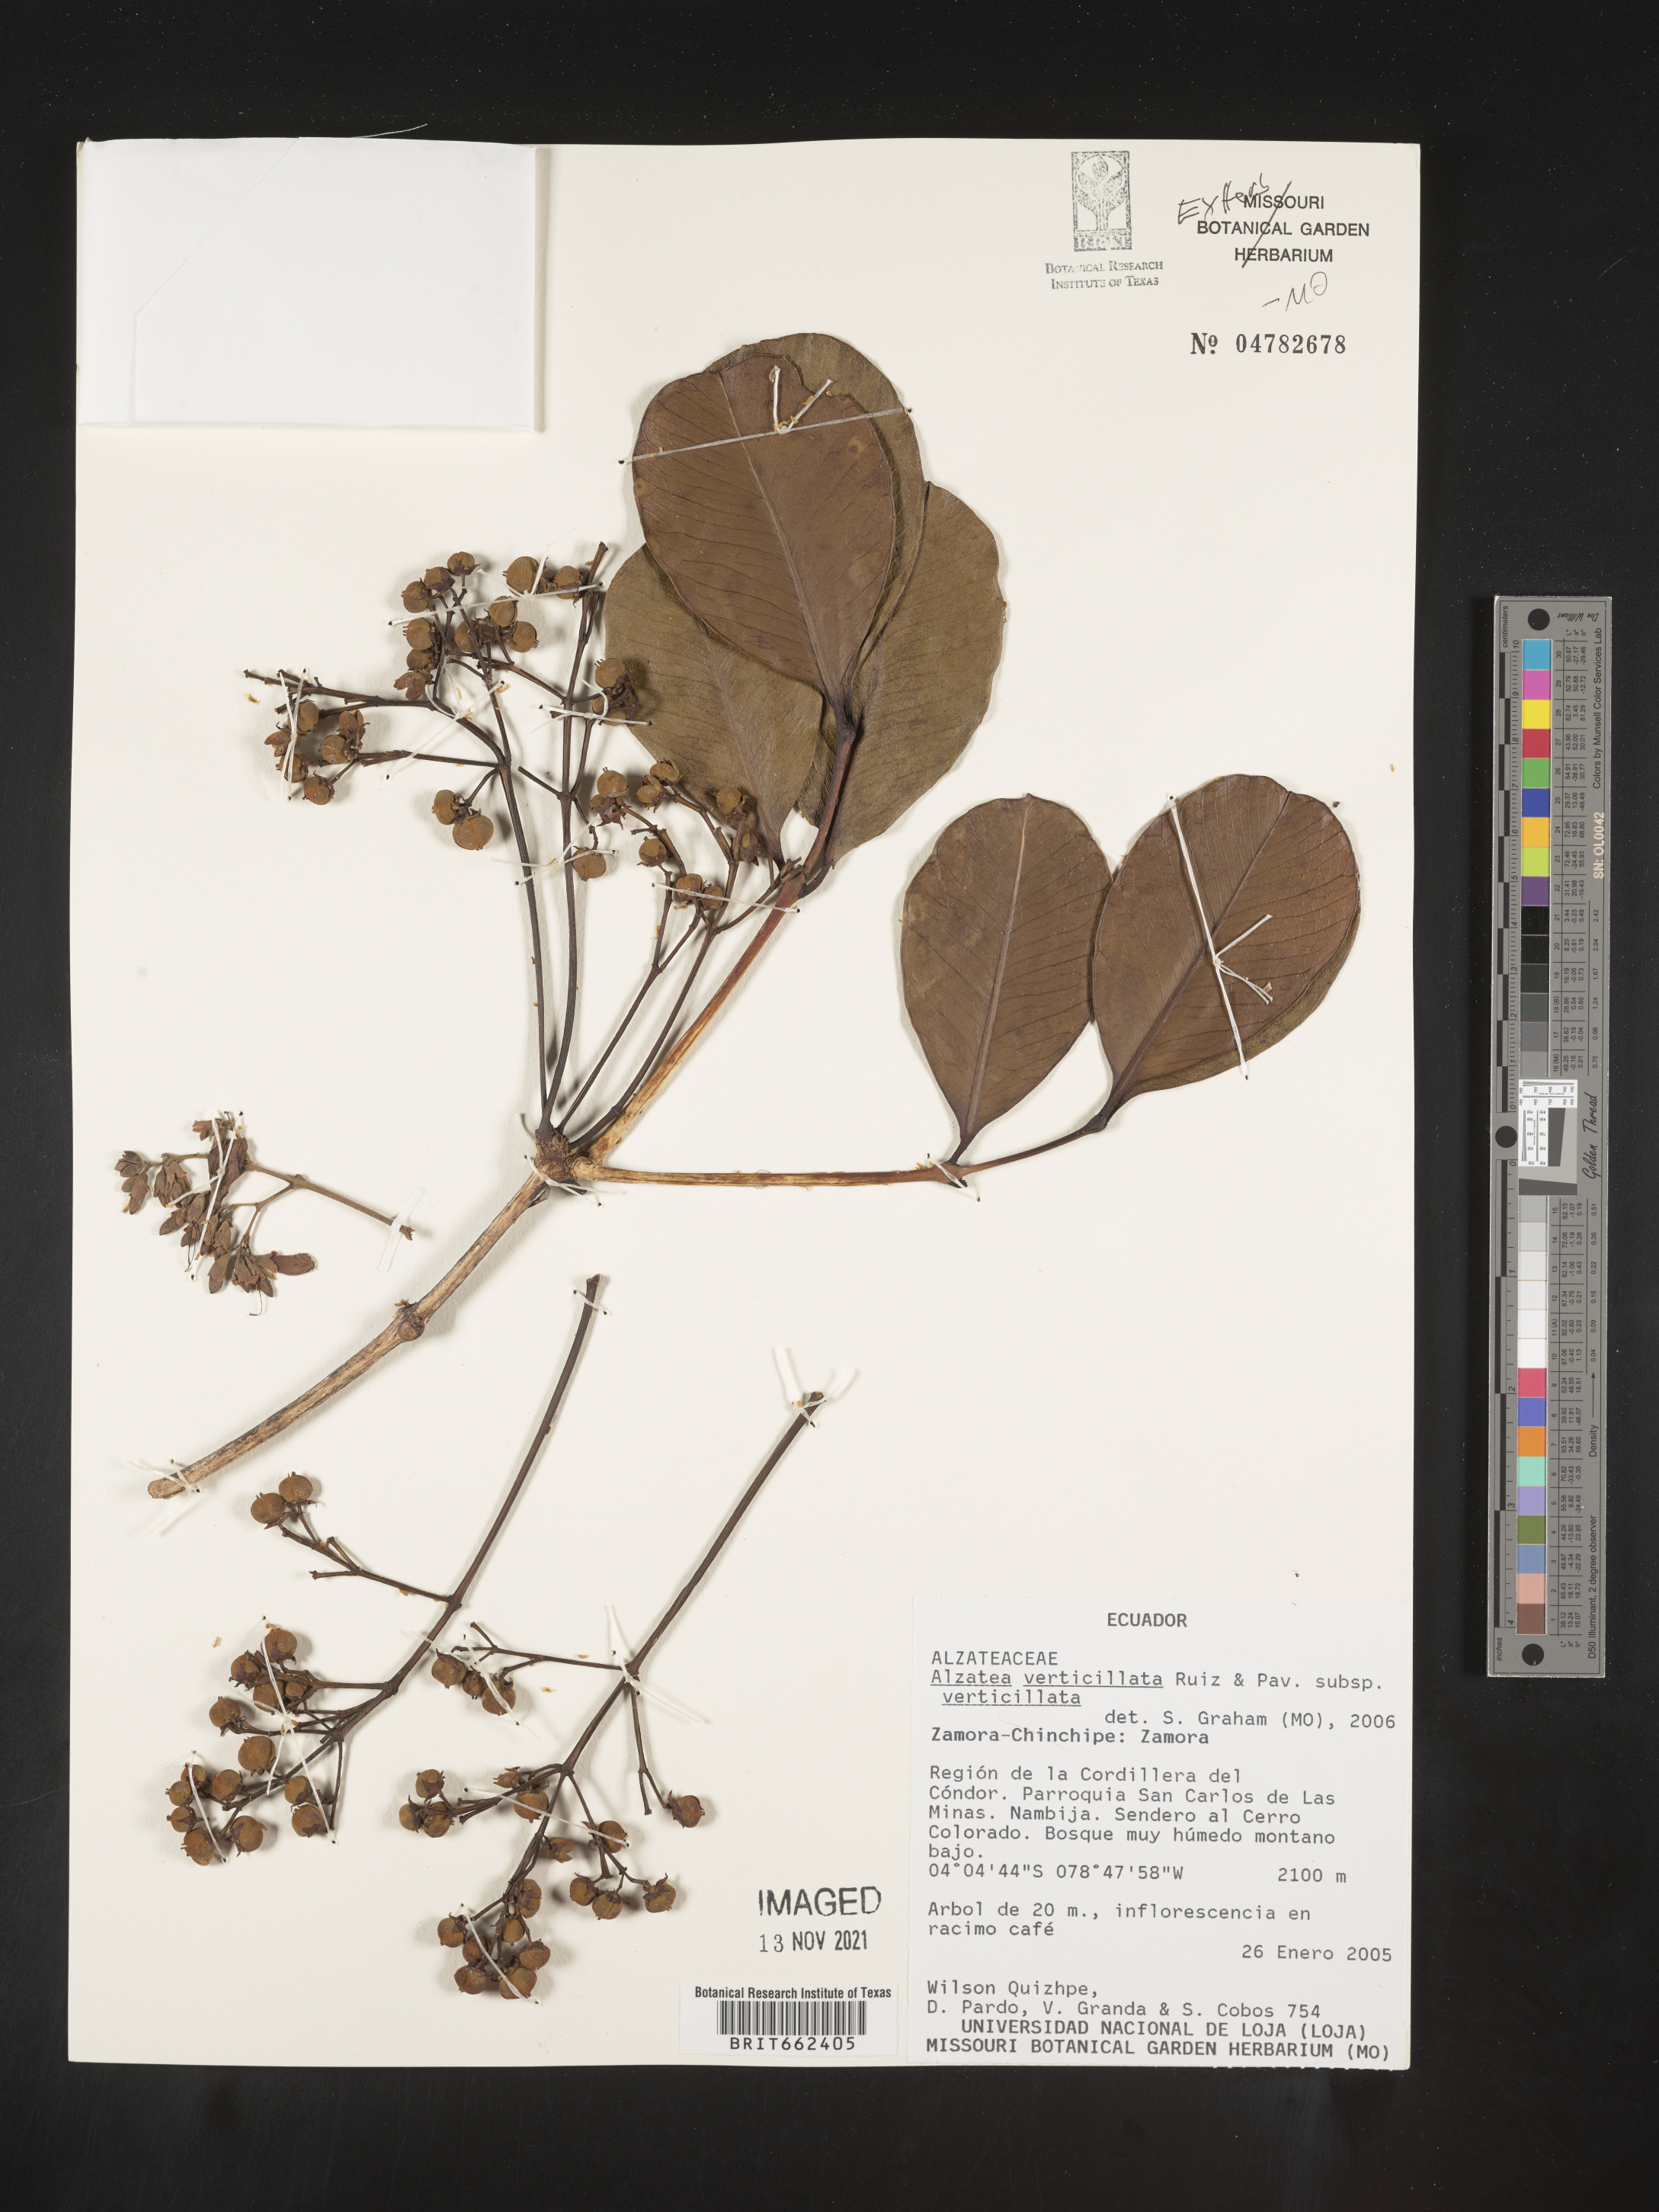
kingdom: Plantae
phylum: Tracheophyta
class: Magnoliopsida
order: Myrtales
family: Alzateaceae
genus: Alzatea
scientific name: Alzatea
